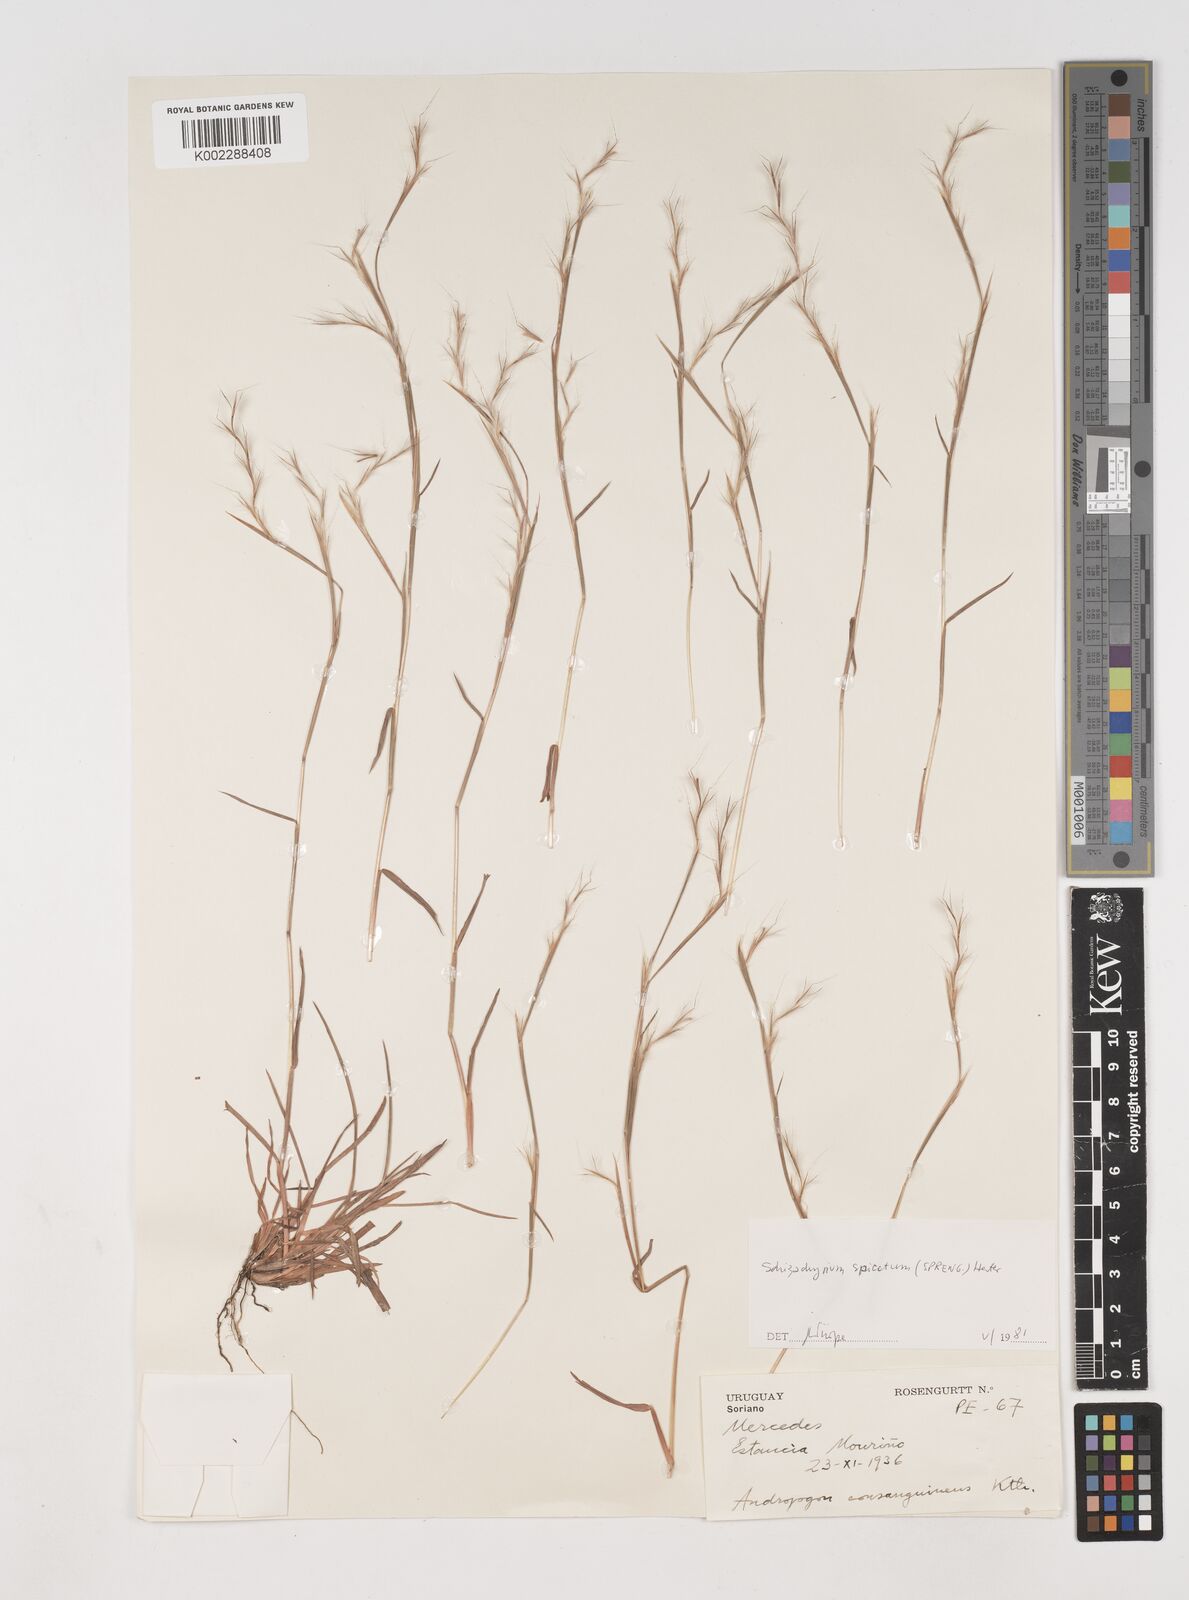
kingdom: Plantae
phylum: Tracheophyta
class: Liliopsida
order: Poales
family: Poaceae
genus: Schizachyrium
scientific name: Schizachyrium spicatum
